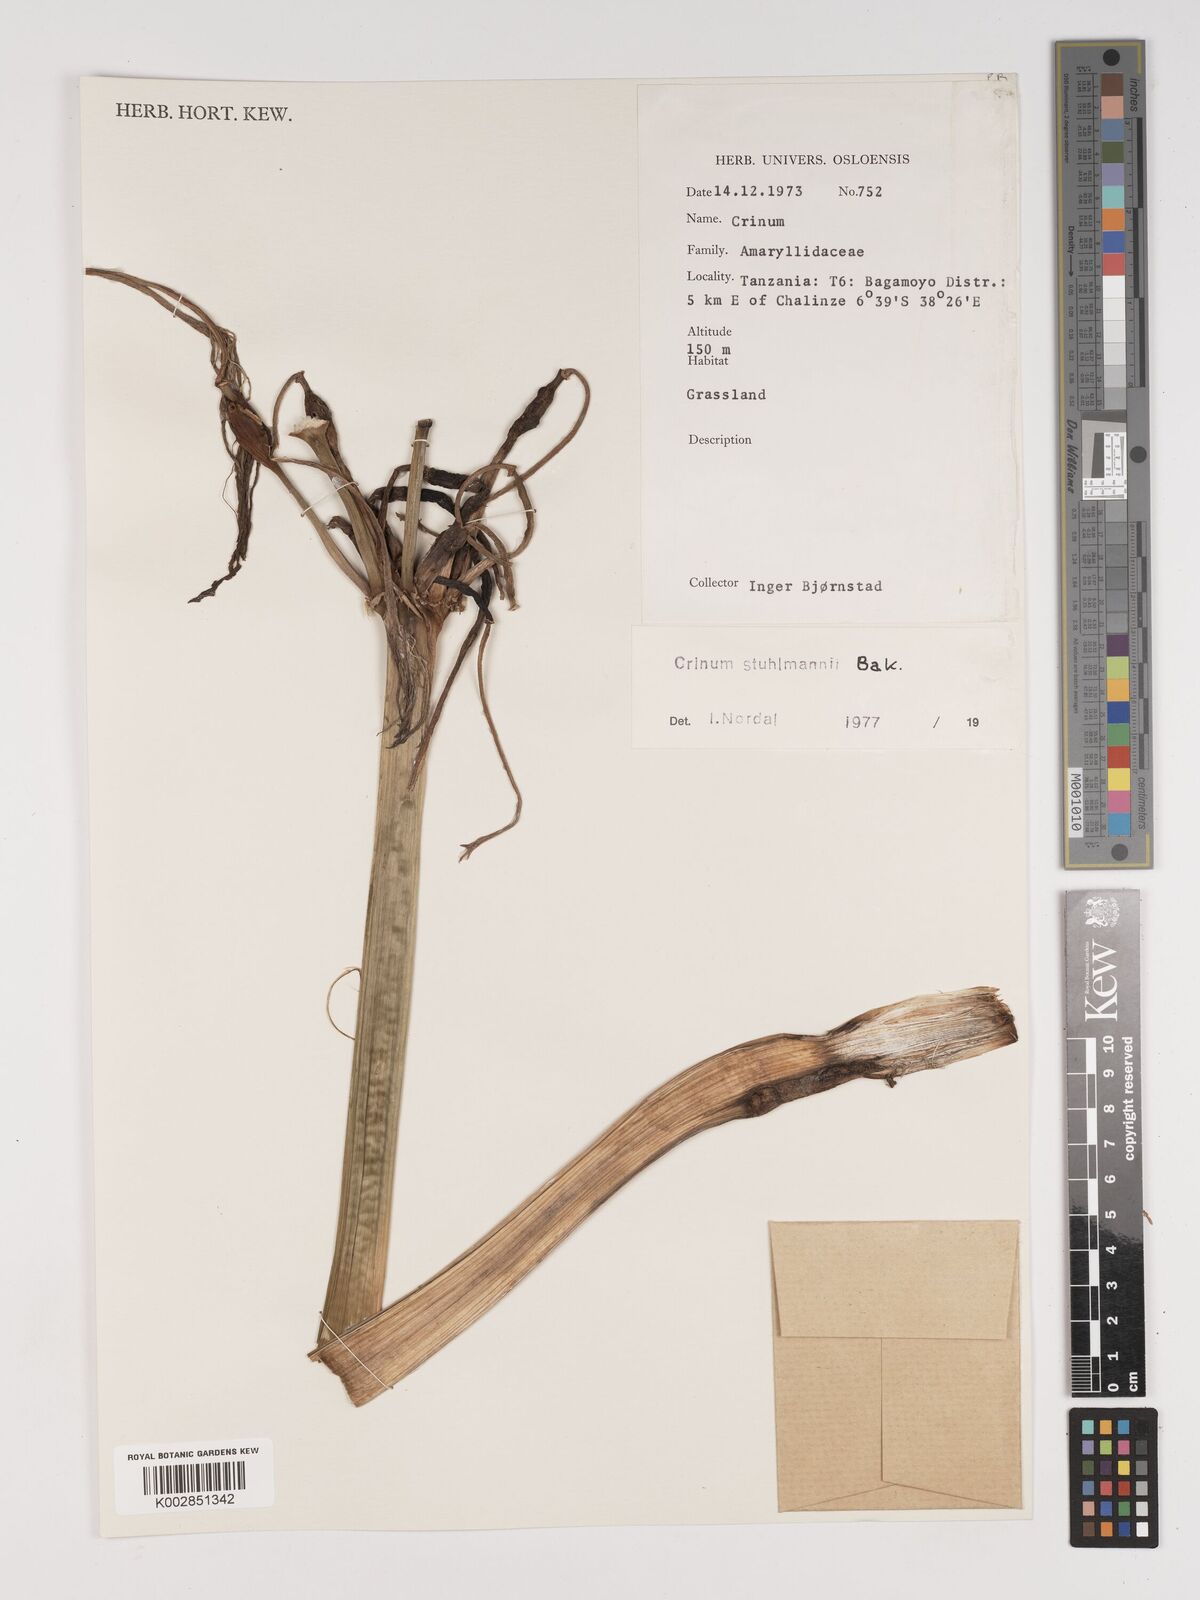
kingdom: Plantae
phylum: Tracheophyta
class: Liliopsida
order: Asparagales
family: Amaryllidaceae
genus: Crinum
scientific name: Crinum stuhlmannii
